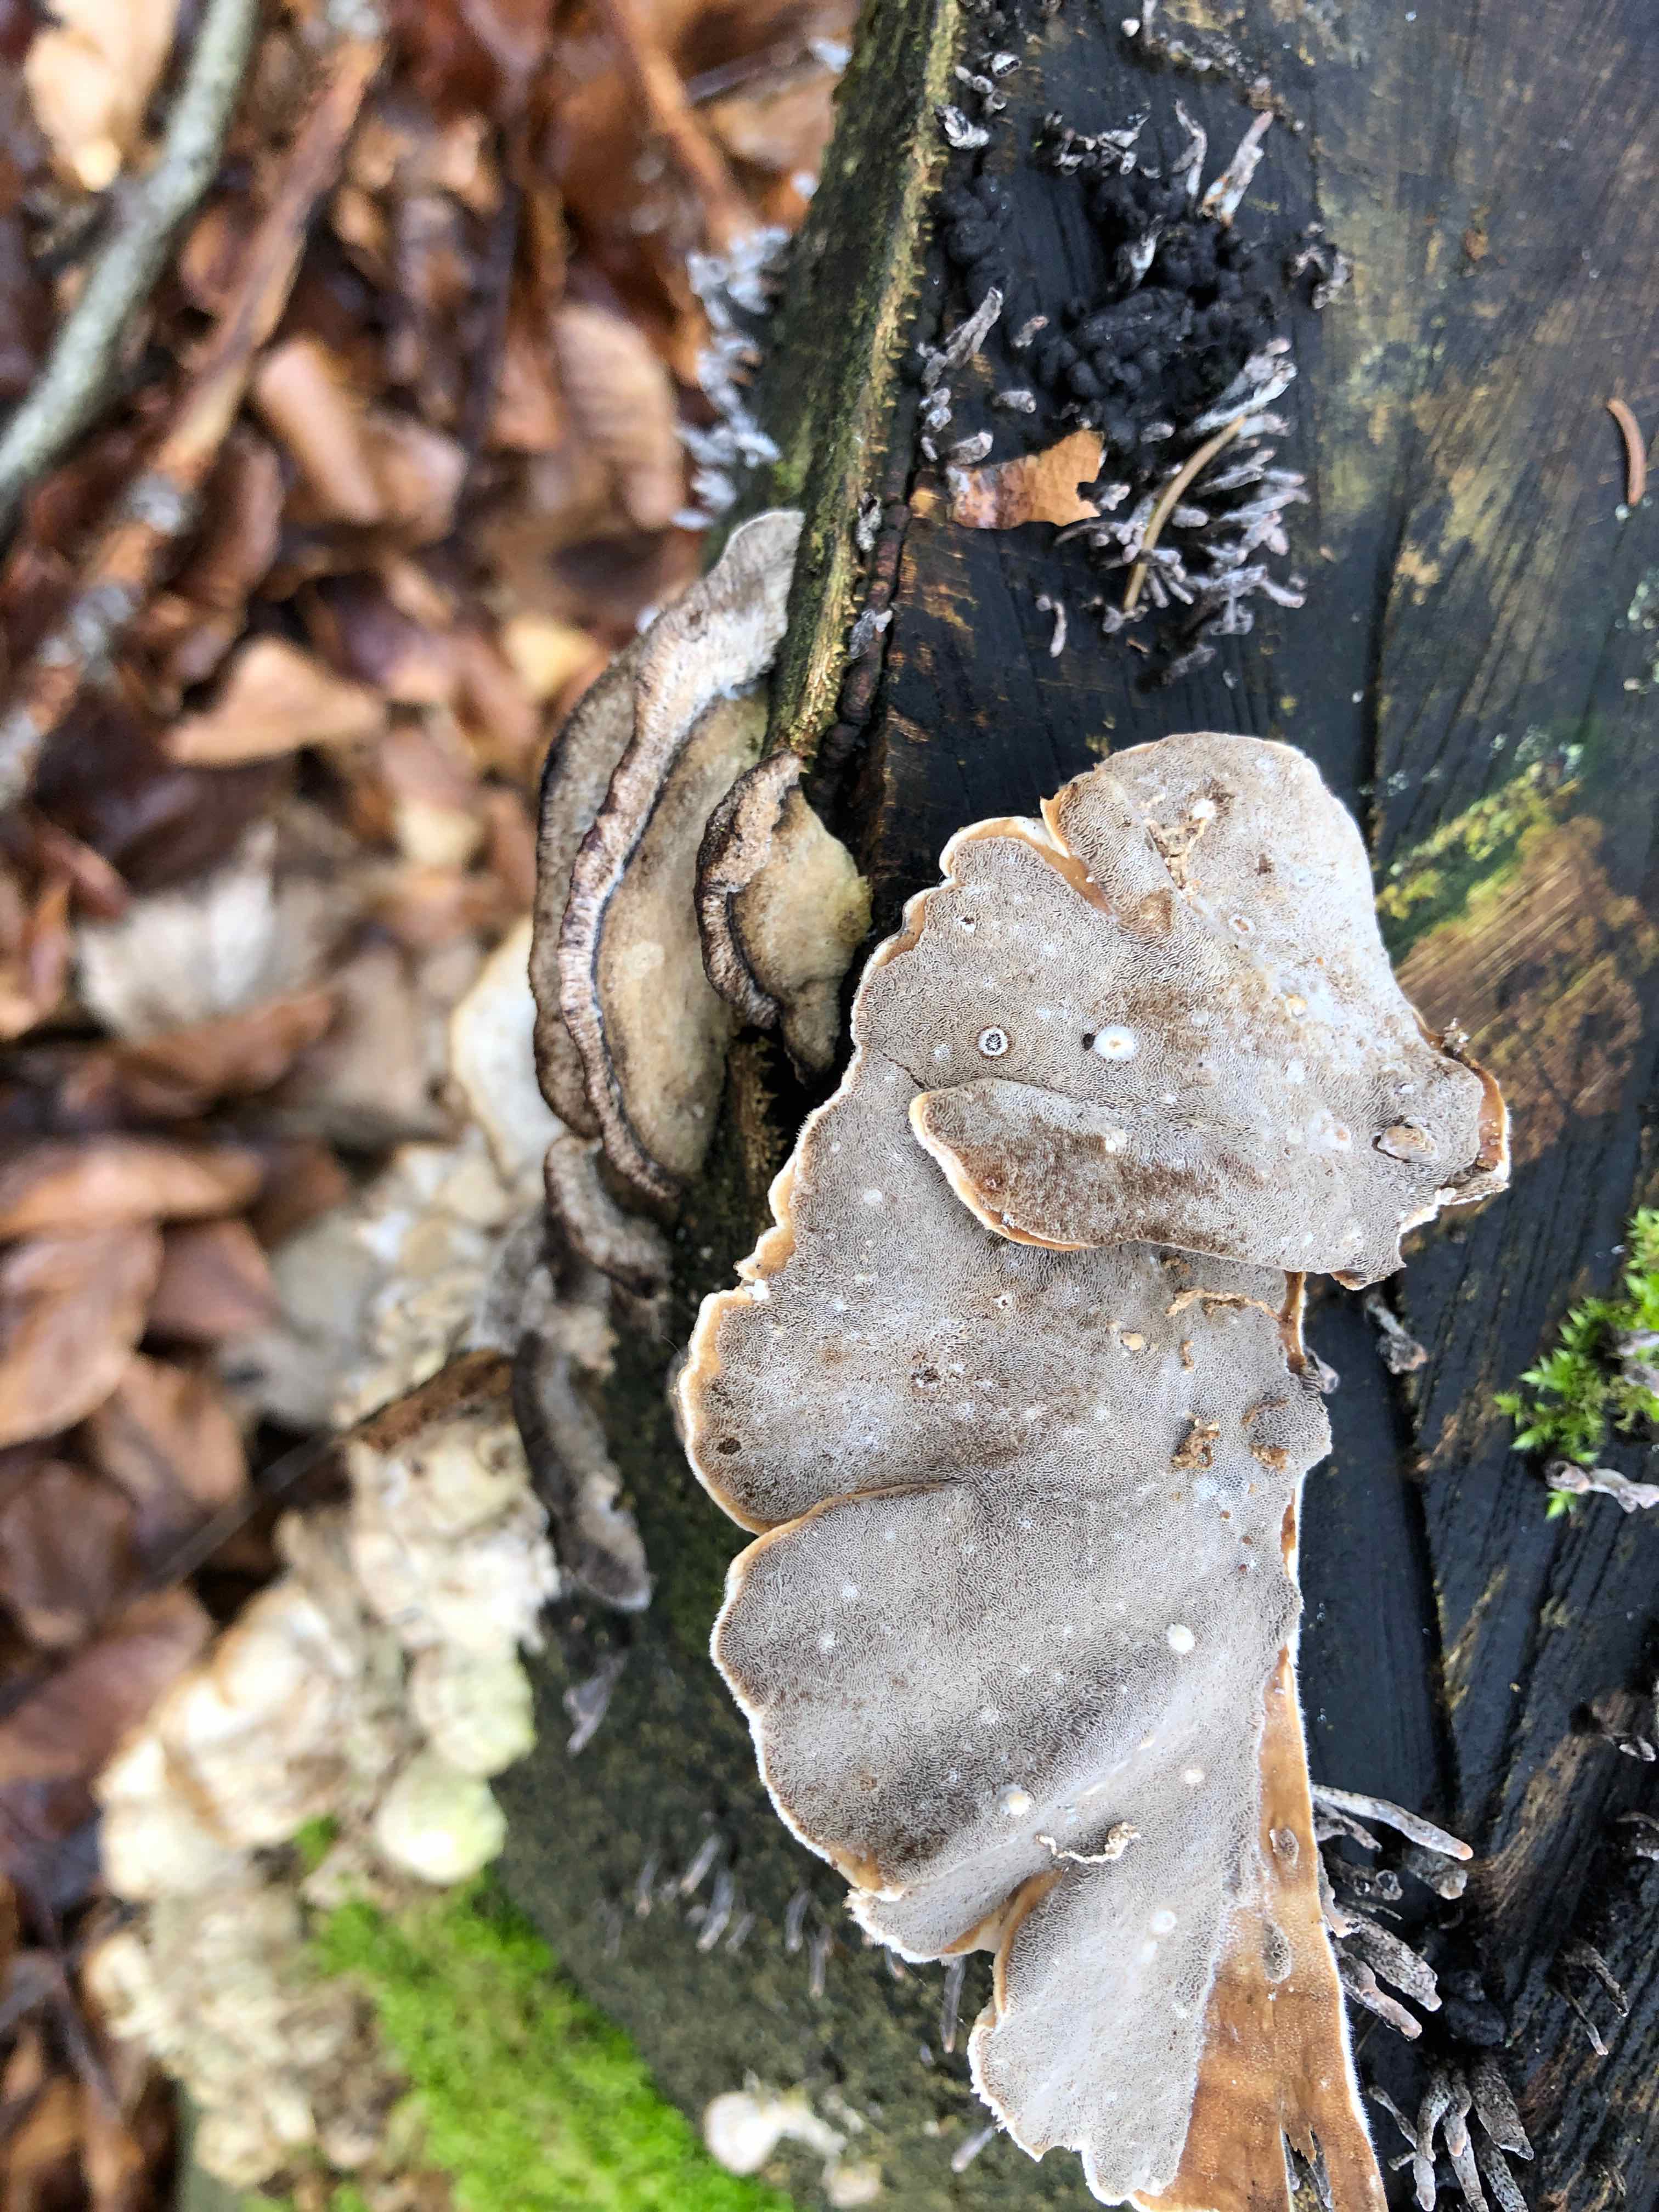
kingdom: Fungi
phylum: Basidiomycota
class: Agaricomycetes
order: Polyporales
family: Phanerochaetaceae
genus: Bjerkandera
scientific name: Bjerkandera adusta
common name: sveden sodporesvamp
